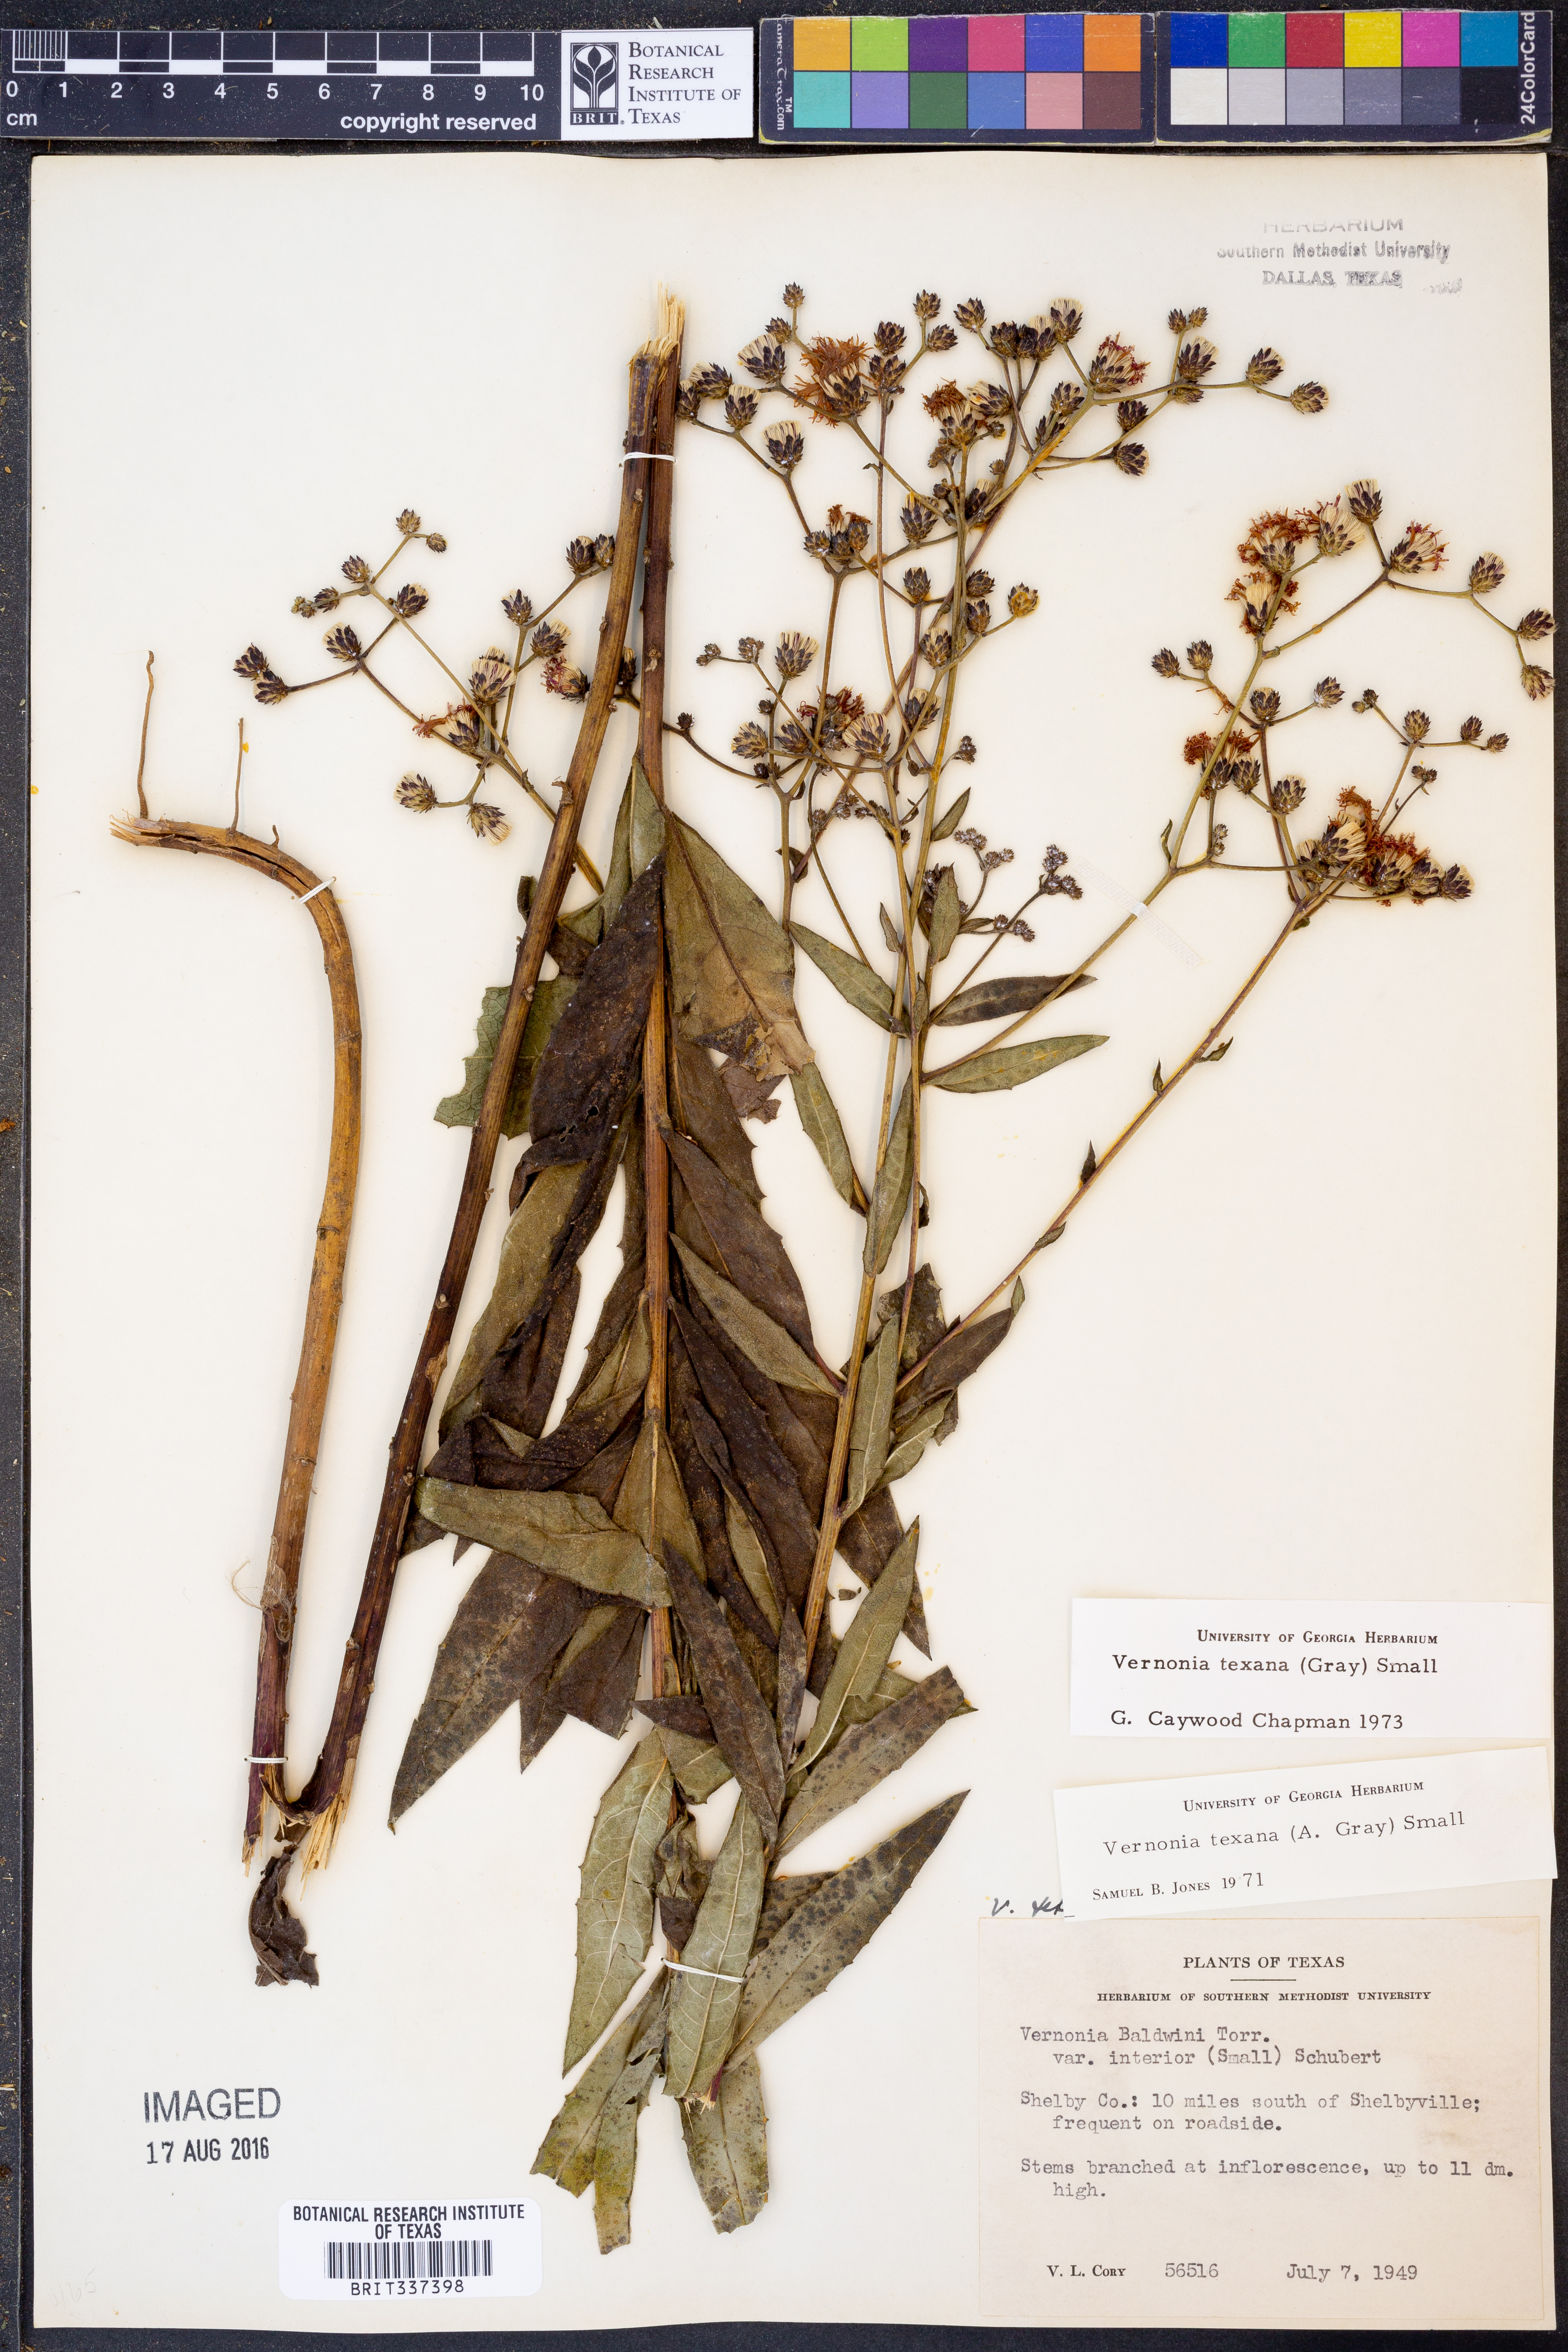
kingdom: Plantae
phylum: Tracheophyta
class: Magnoliopsida
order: Asterales
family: Asteraceae
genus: Vernonia
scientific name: Vernonia texana
